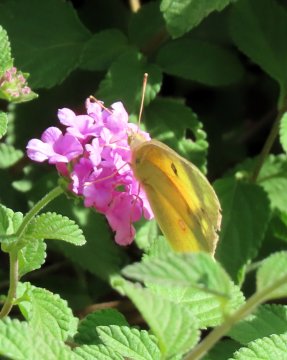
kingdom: Animalia
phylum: Arthropoda
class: Insecta
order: Lepidoptera
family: Pieridae
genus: Colias
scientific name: Colias eurytheme
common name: Orange Sulphur
